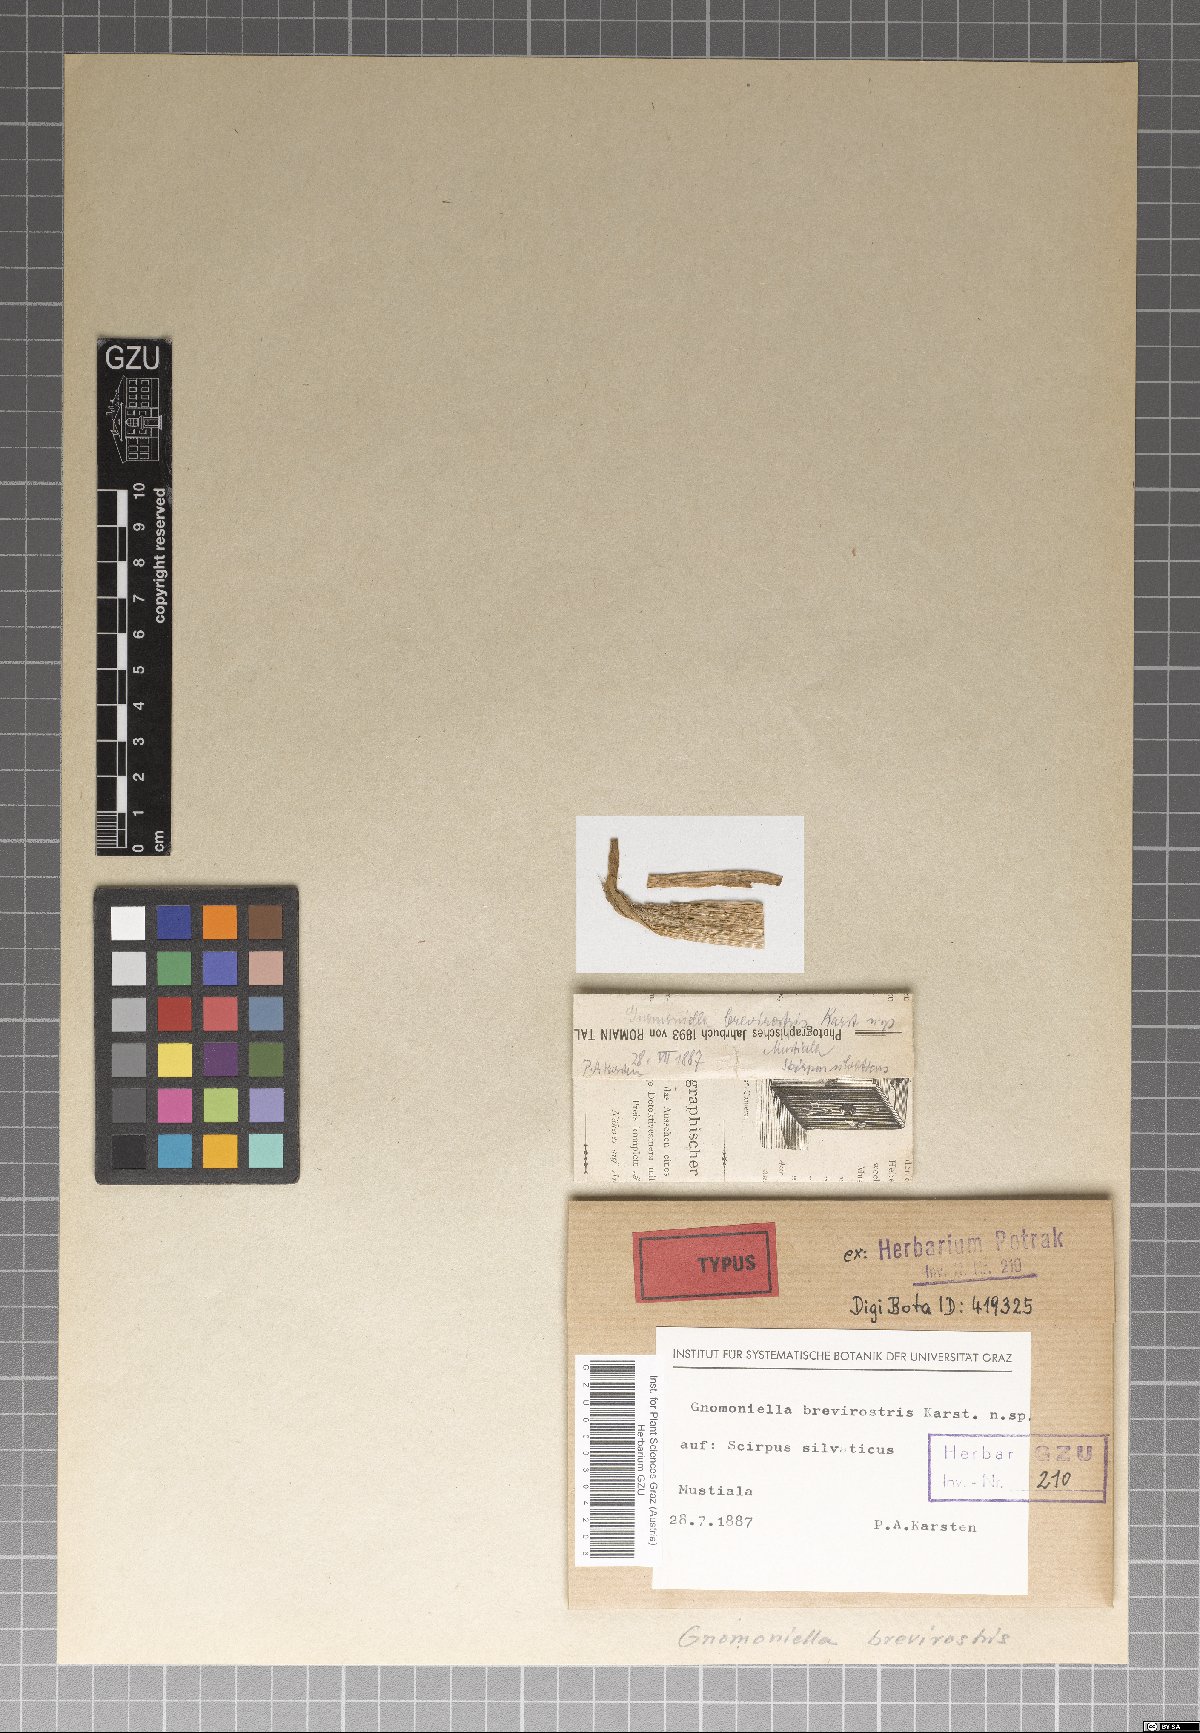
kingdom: Fungi
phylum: Ascomycota
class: Sordariomycetes
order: Diaporthales
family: Gnomoniaceae
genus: Gnomoniella
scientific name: Gnomoniella
